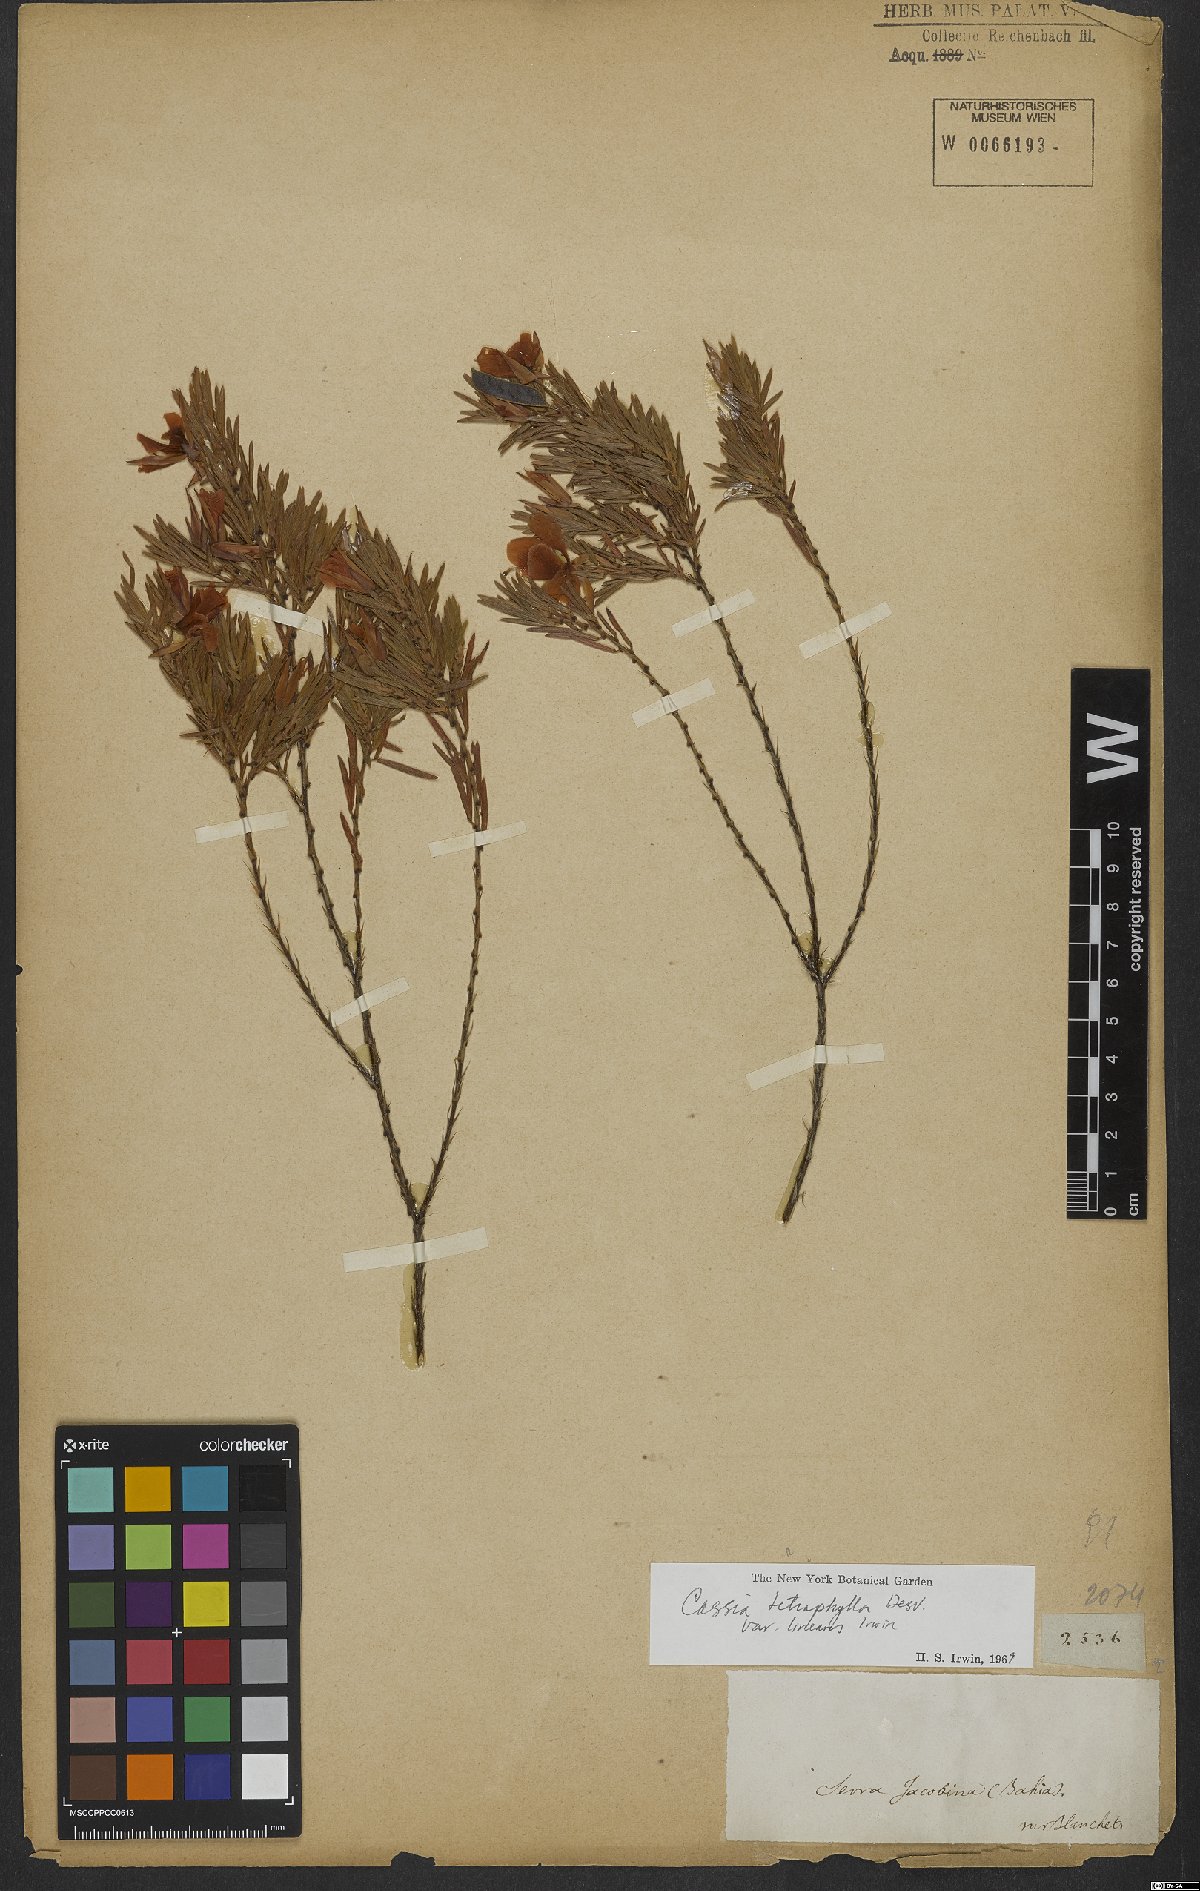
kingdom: Plantae
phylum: Tracheophyta
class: Magnoliopsida
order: Fabales
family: Fabaceae
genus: Chamaecrista
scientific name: Chamaecrista desvauxii
